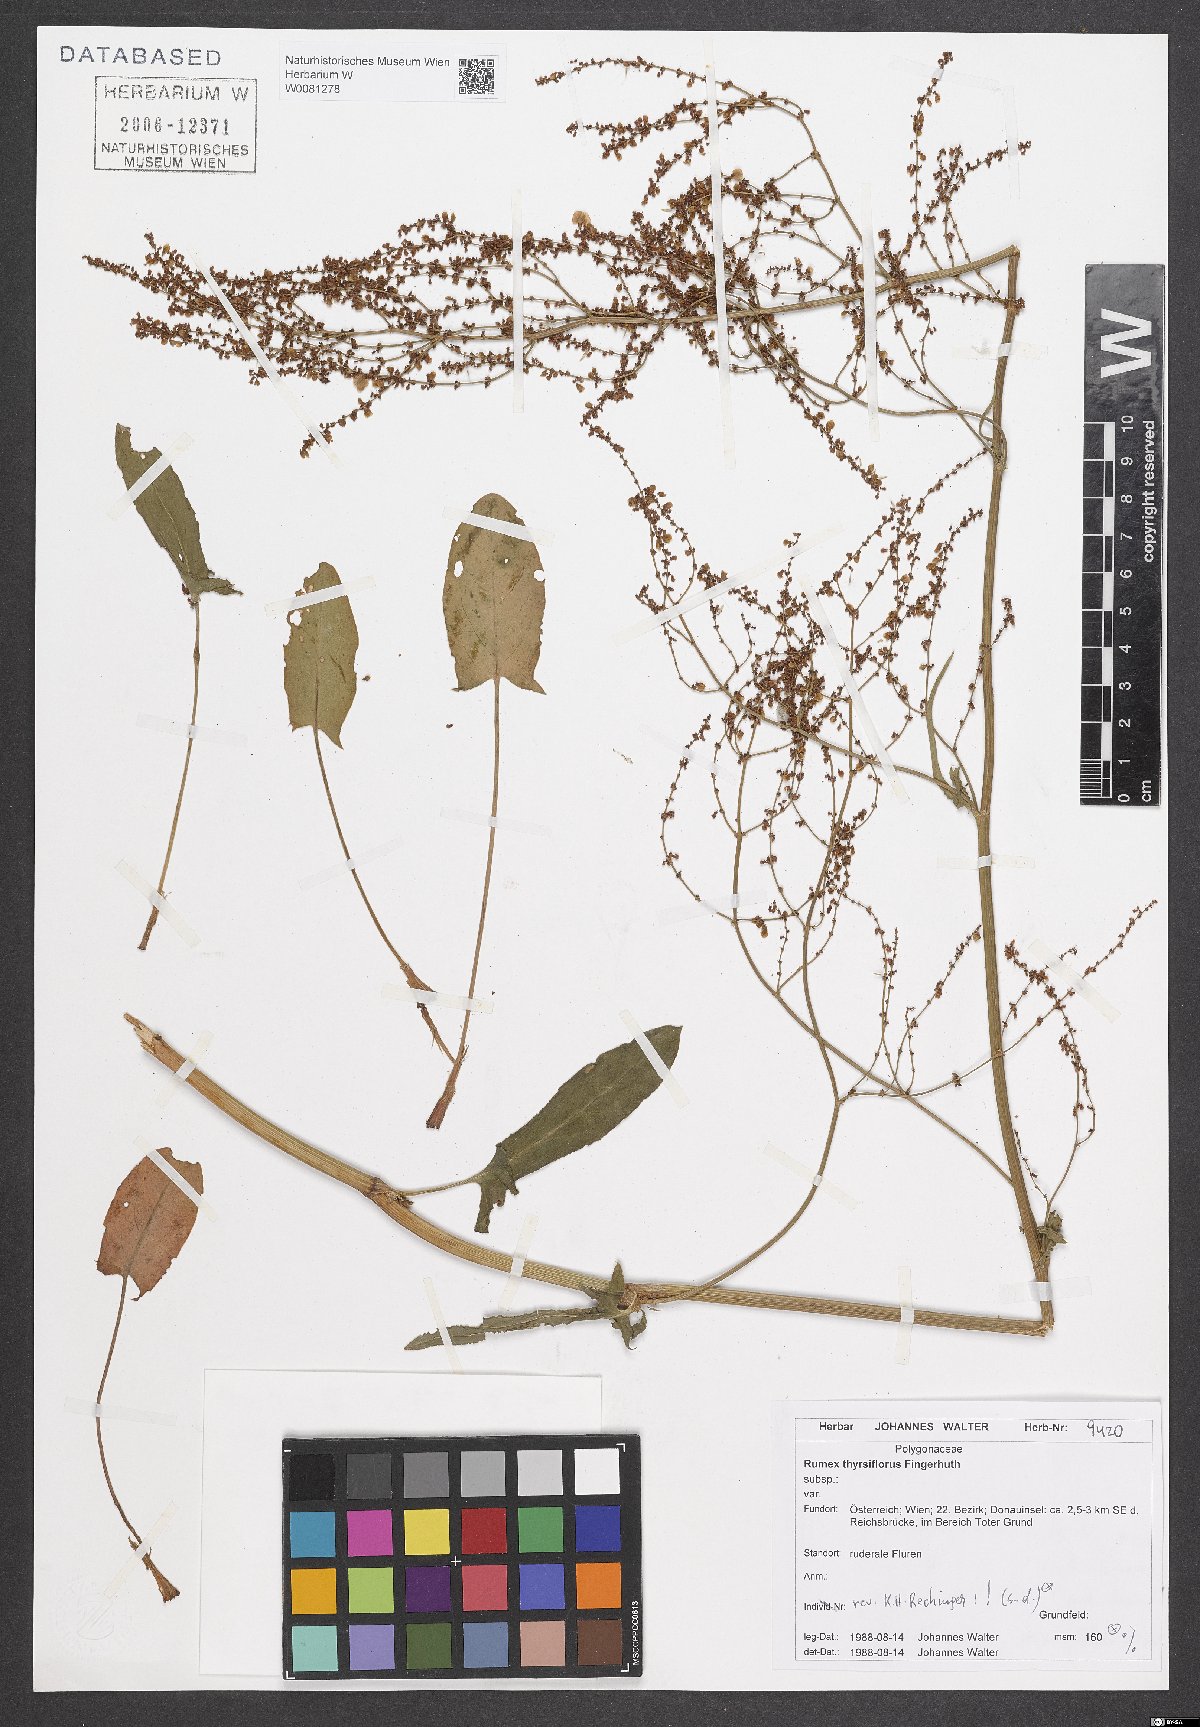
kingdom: Plantae
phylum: Tracheophyta
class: Magnoliopsida
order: Caryophyllales
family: Polygonaceae
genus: Rumex
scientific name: Rumex thyrsiflorus
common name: Garden sorrel
